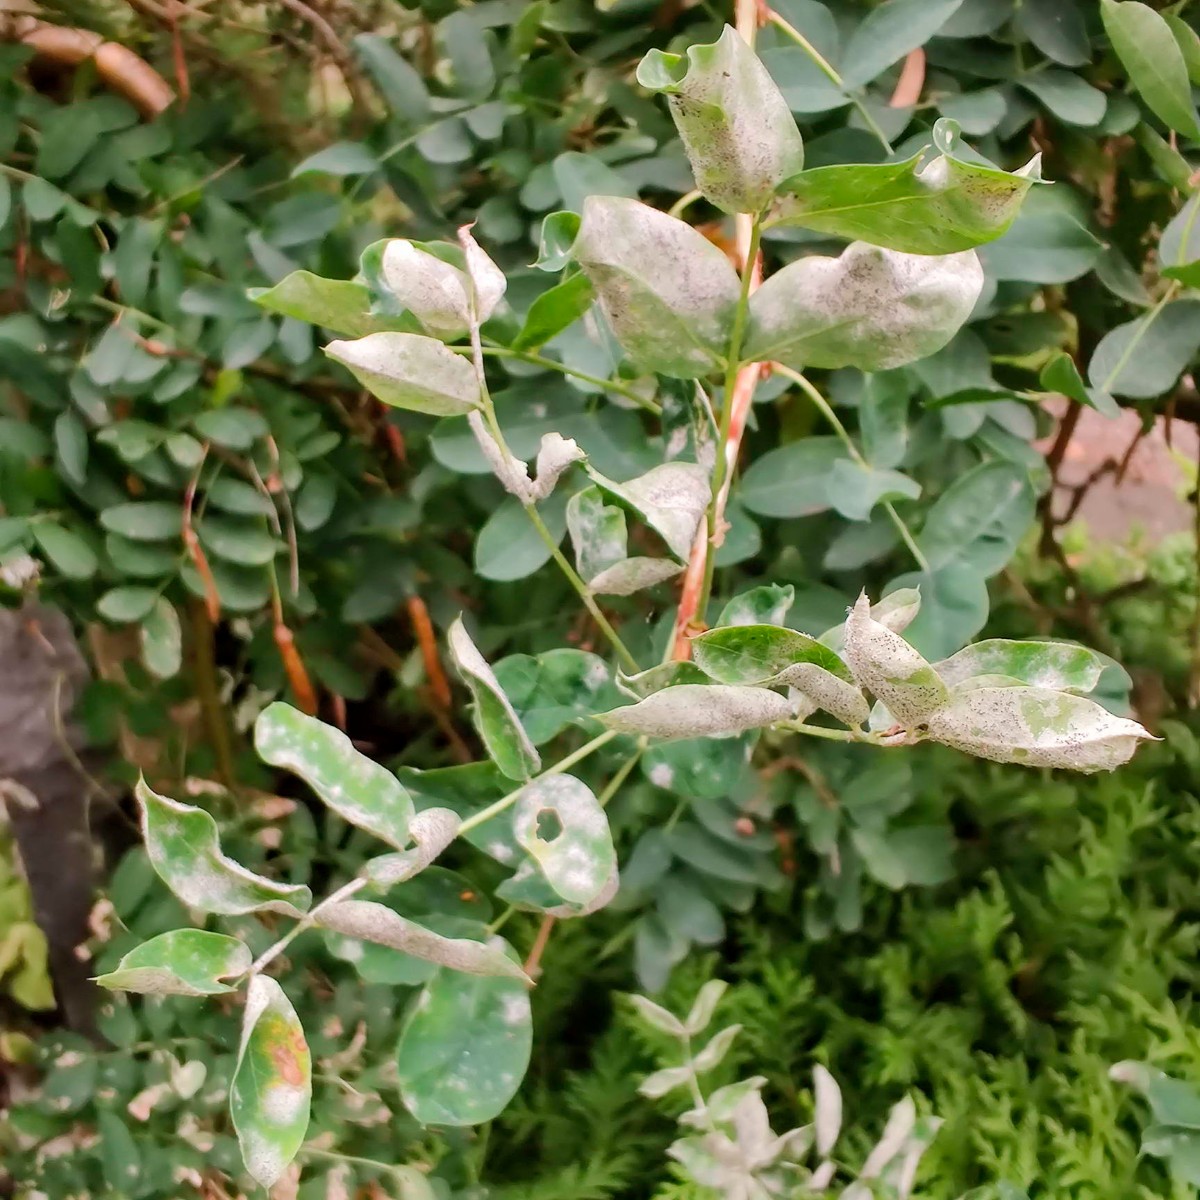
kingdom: Fungi
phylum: Ascomycota
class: Leotiomycetes
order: Helotiales
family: Erysiphaceae
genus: Erysiphe
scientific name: Erysiphe palczewskii
